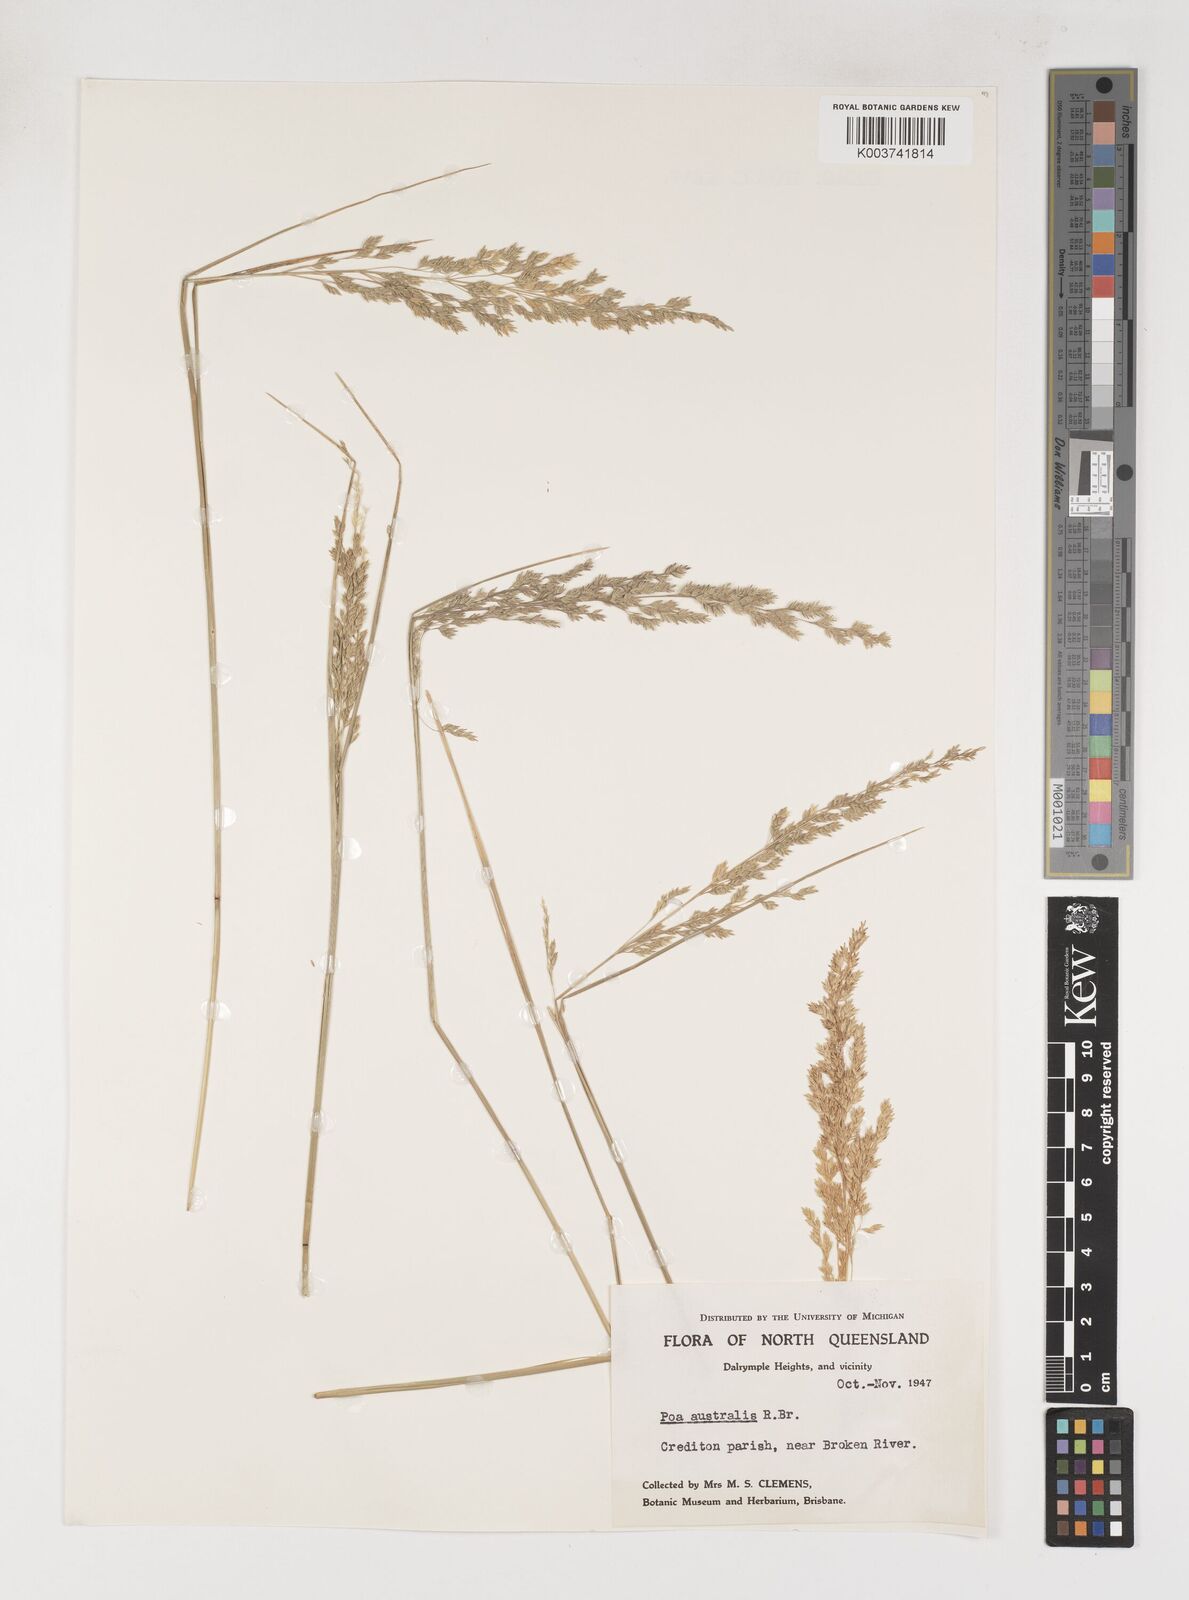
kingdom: Plantae
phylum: Tracheophyta
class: Liliopsida
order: Poales
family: Poaceae
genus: Poa
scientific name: Poa sieberiana
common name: Tussock poa
